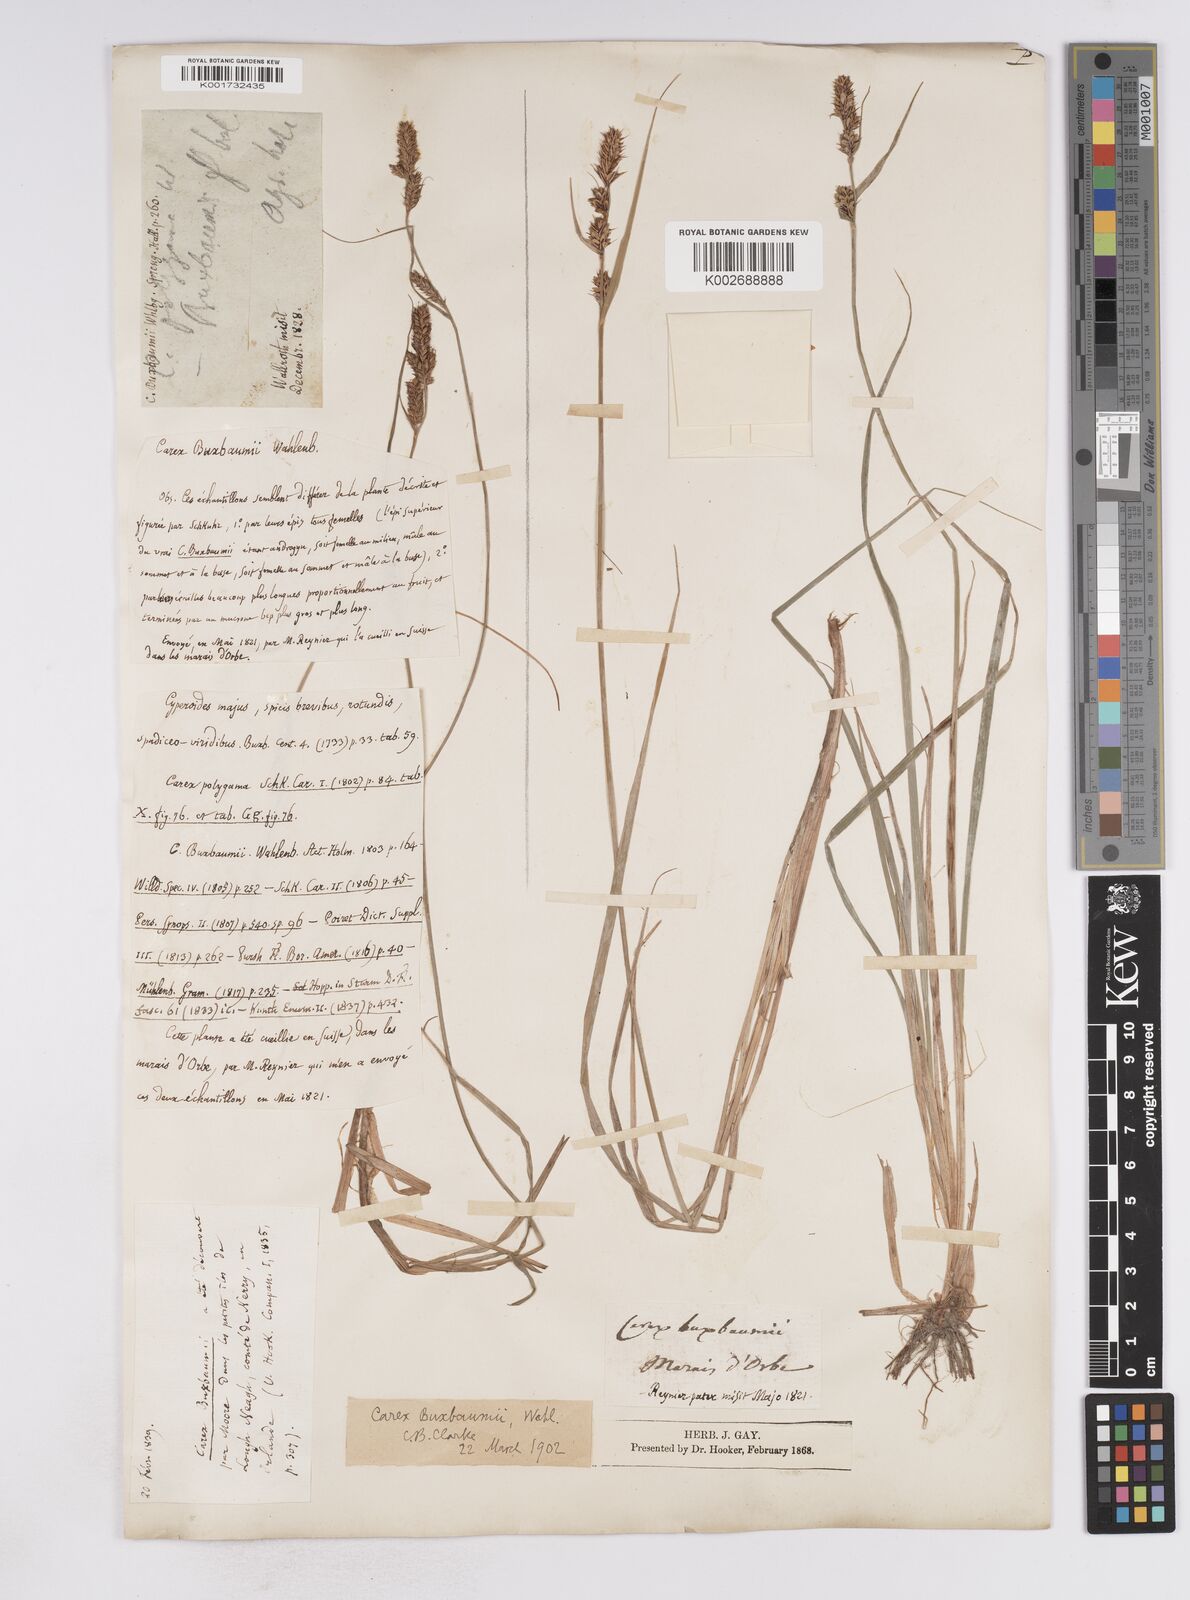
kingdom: Plantae
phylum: Tracheophyta
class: Liliopsida
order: Poales
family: Cyperaceae
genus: Carex
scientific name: Carex buxbaumii
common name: Club sedge
